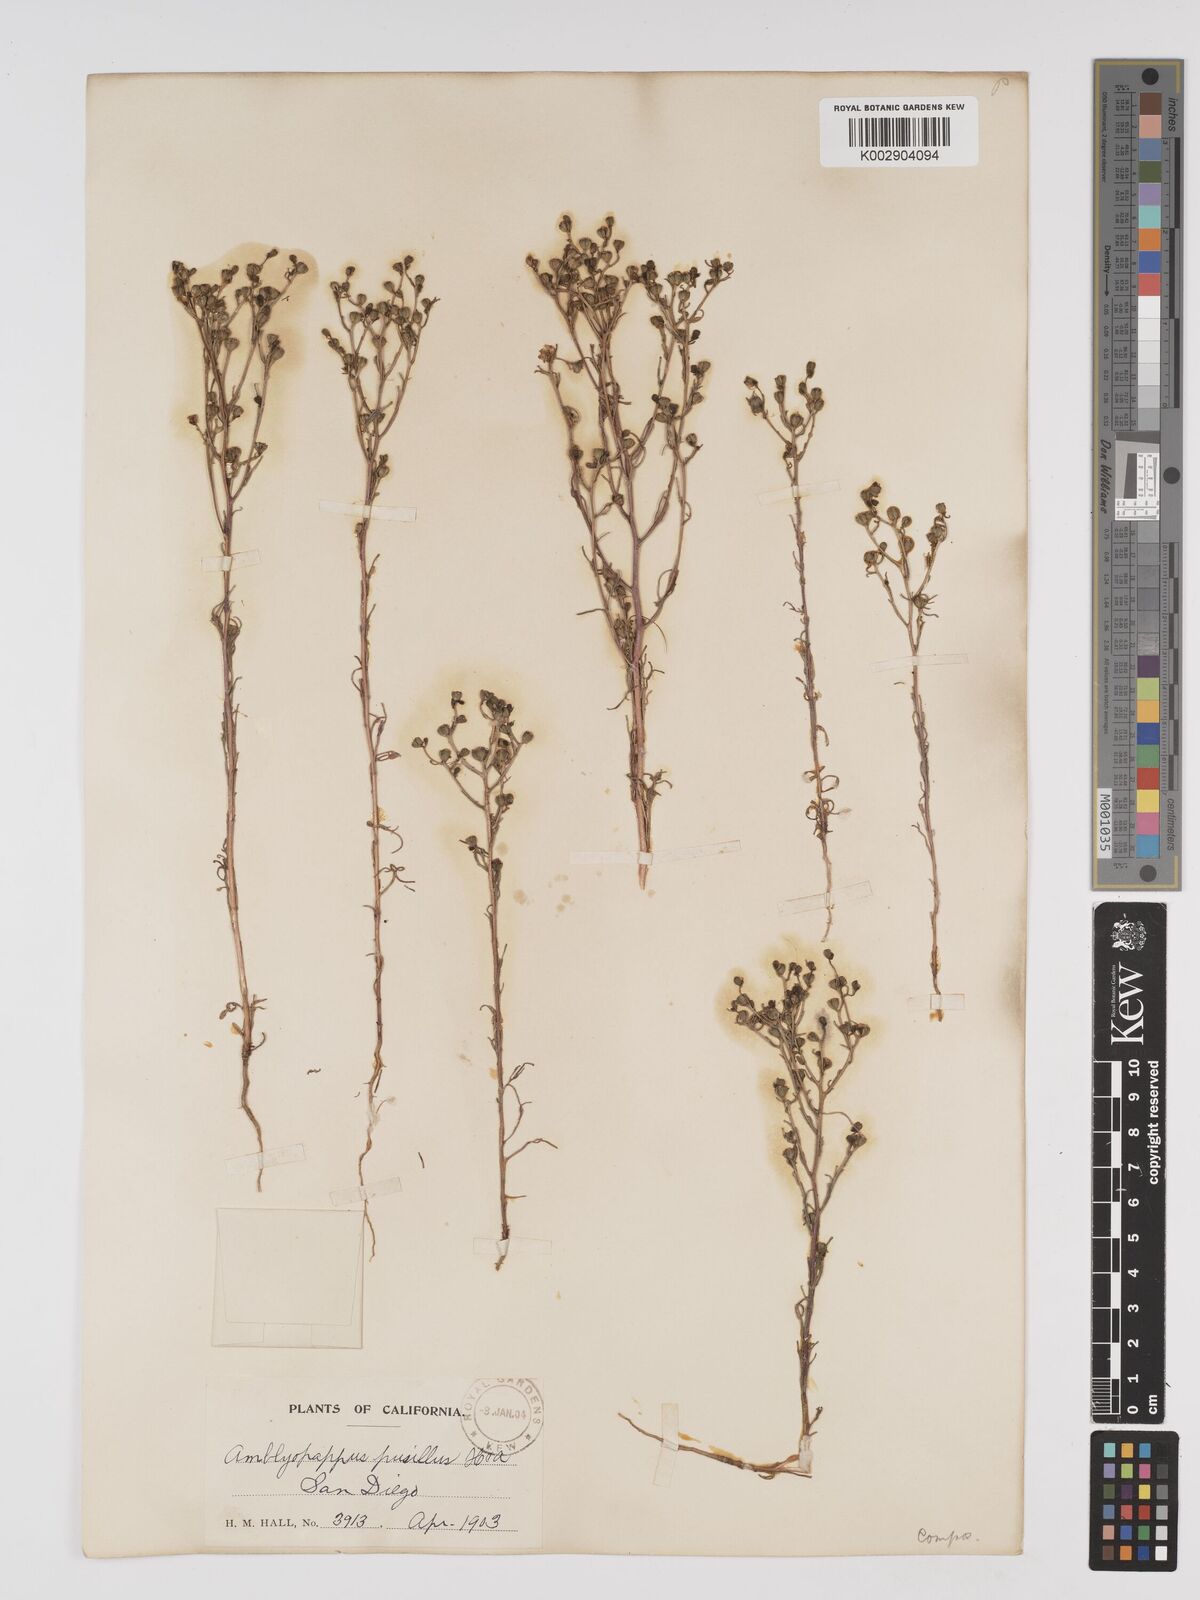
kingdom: Plantae
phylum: Tracheophyta
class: Magnoliopsida
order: Asterales
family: Asteraceae
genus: Amblyopappus
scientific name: Amblyopappus pusillus
